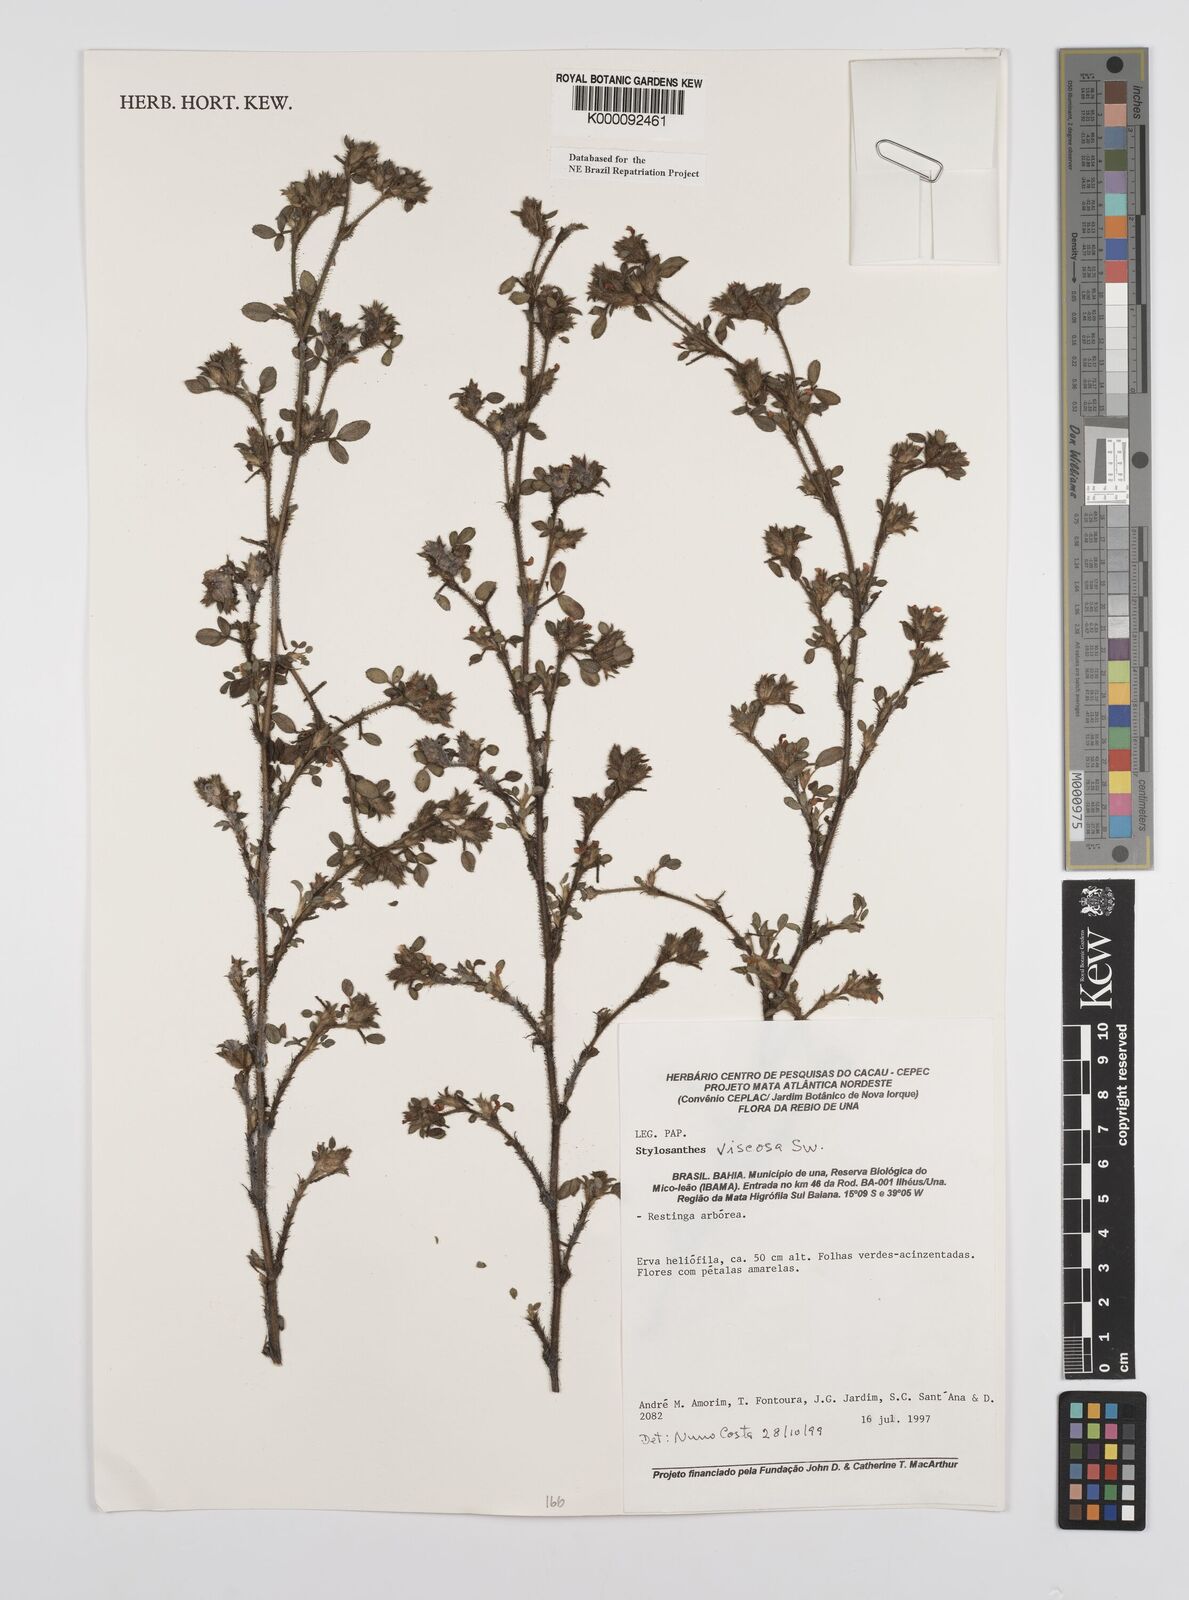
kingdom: Plantae
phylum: Tracheophyta
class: Magnoliopsida
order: Fabales
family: Fabaceae
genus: Stylosanthes
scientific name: Stylosanthes viscosa
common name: Viscid pencil-flower
